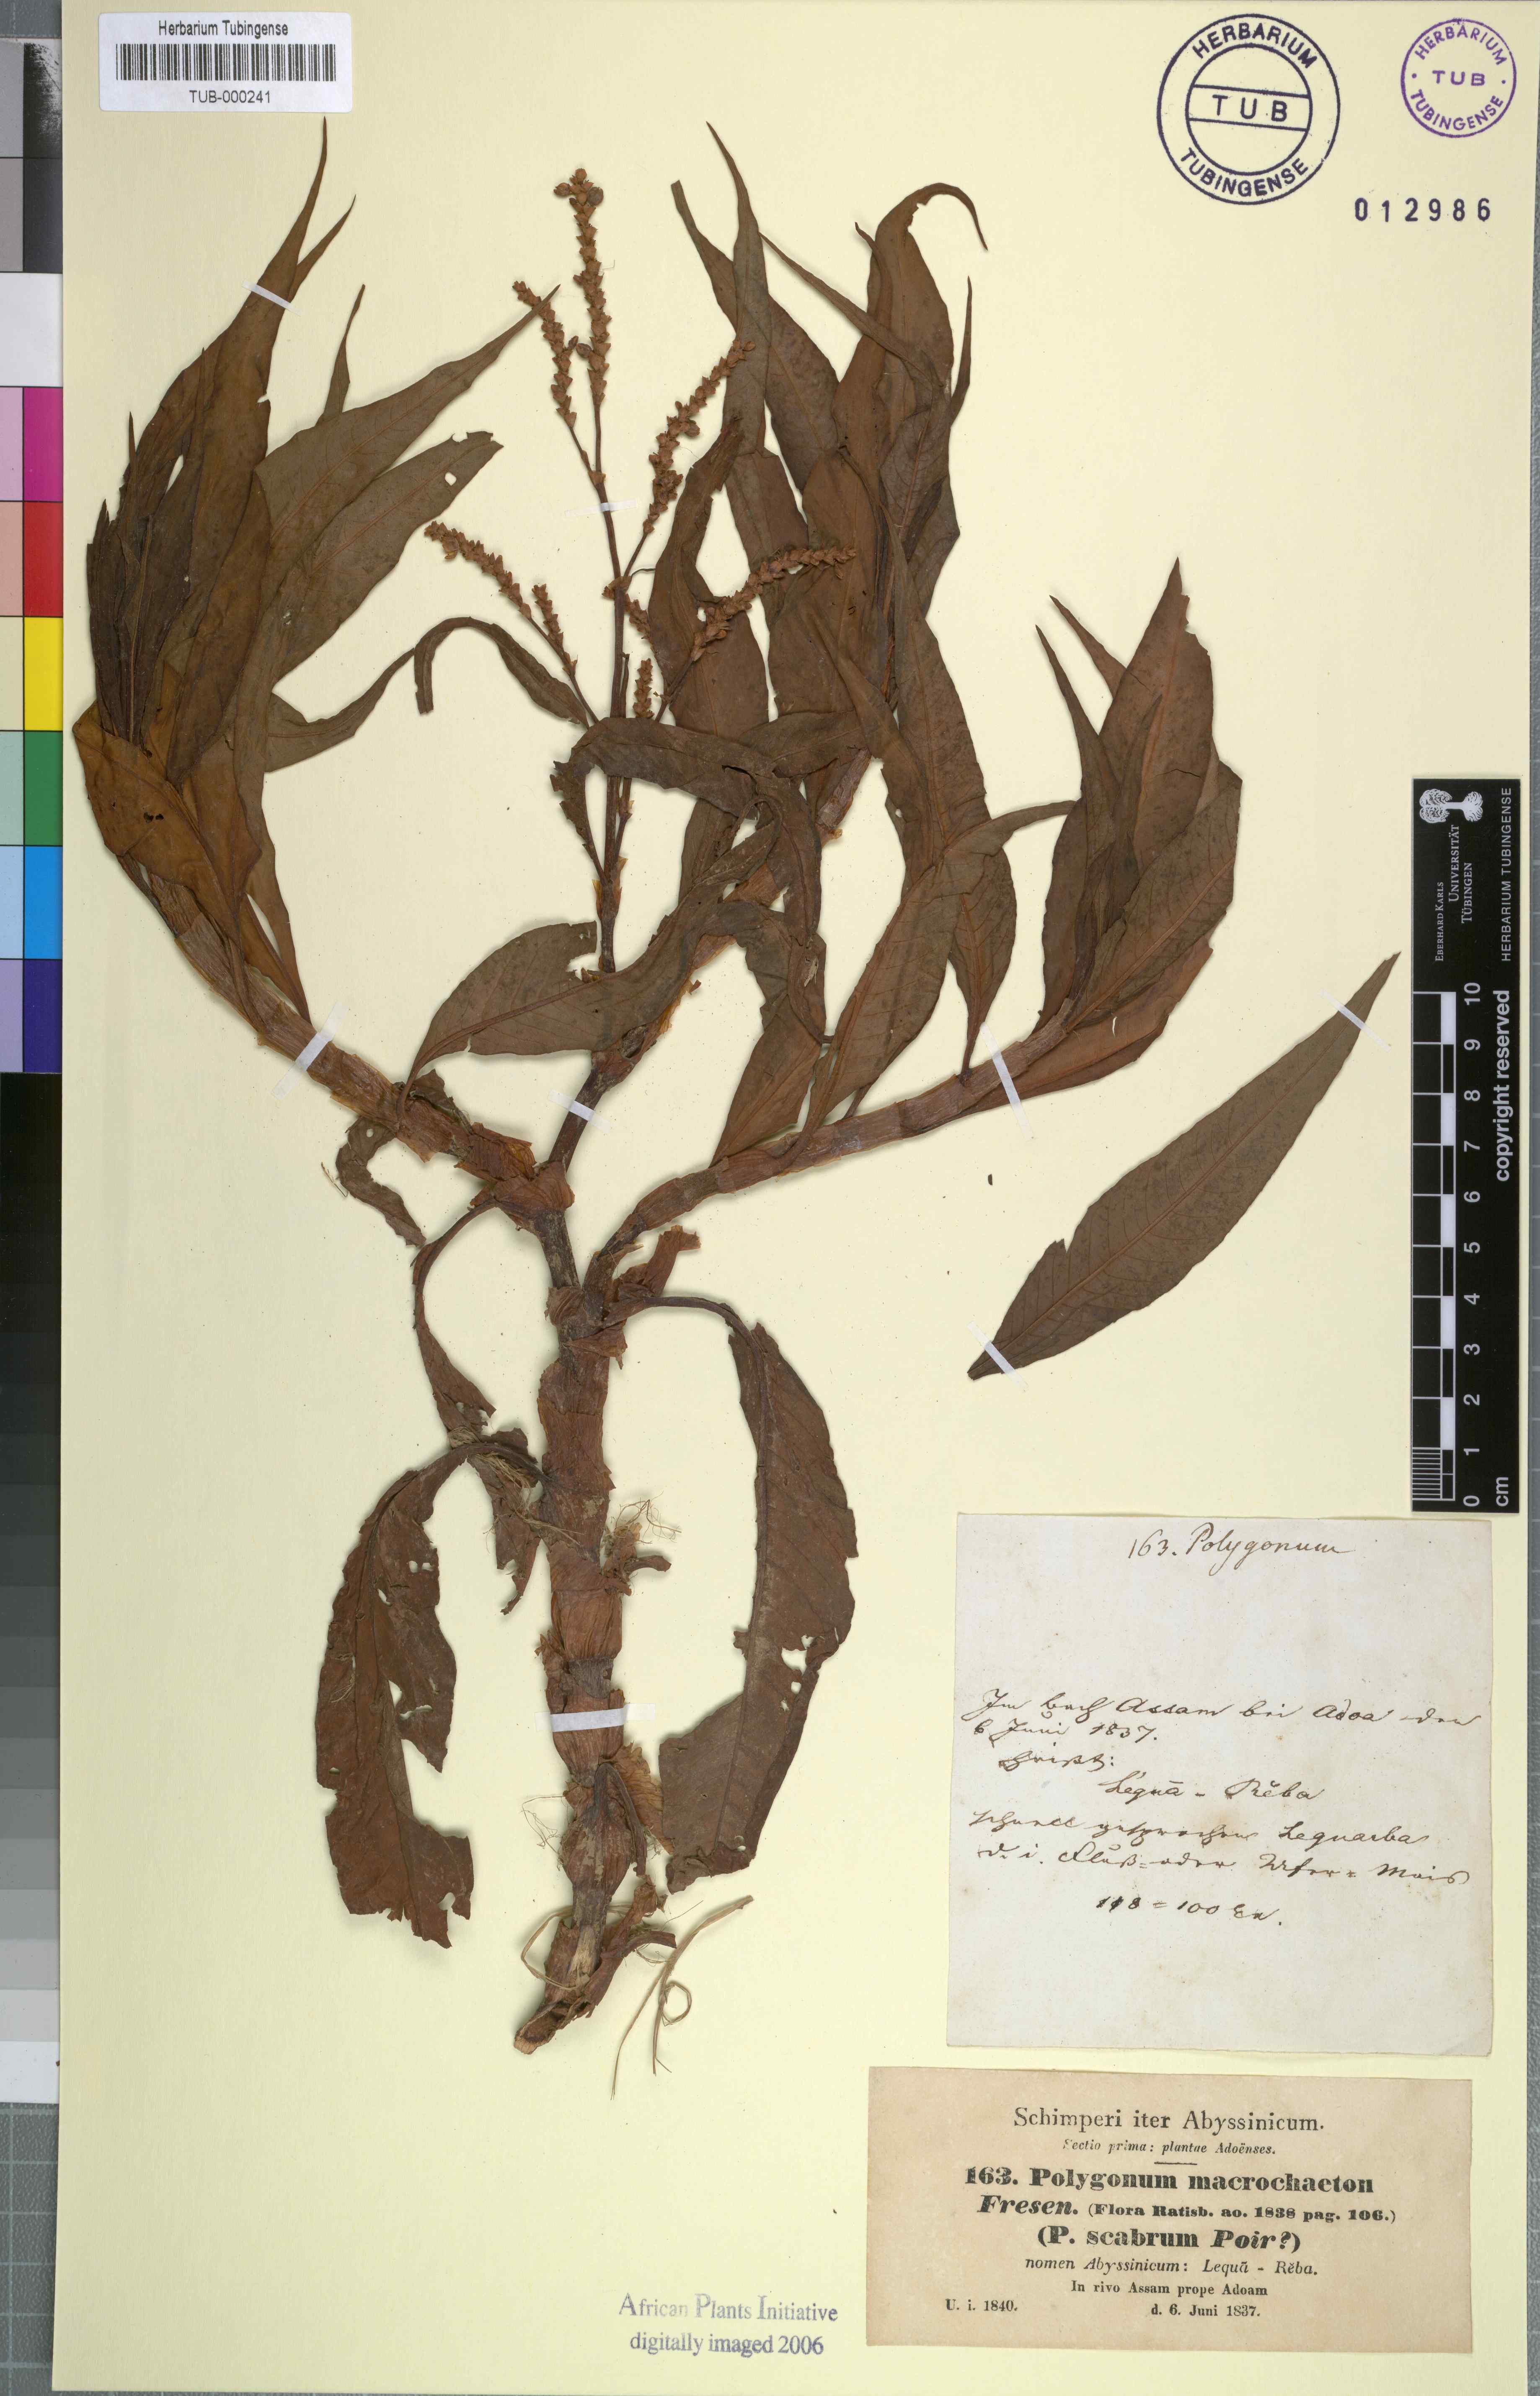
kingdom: Plantae
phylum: Tracheophyta
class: Magnoliopsida
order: Caryophyllales
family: Polygonaceae
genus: Persicaria
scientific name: Persicaria senegalensis
